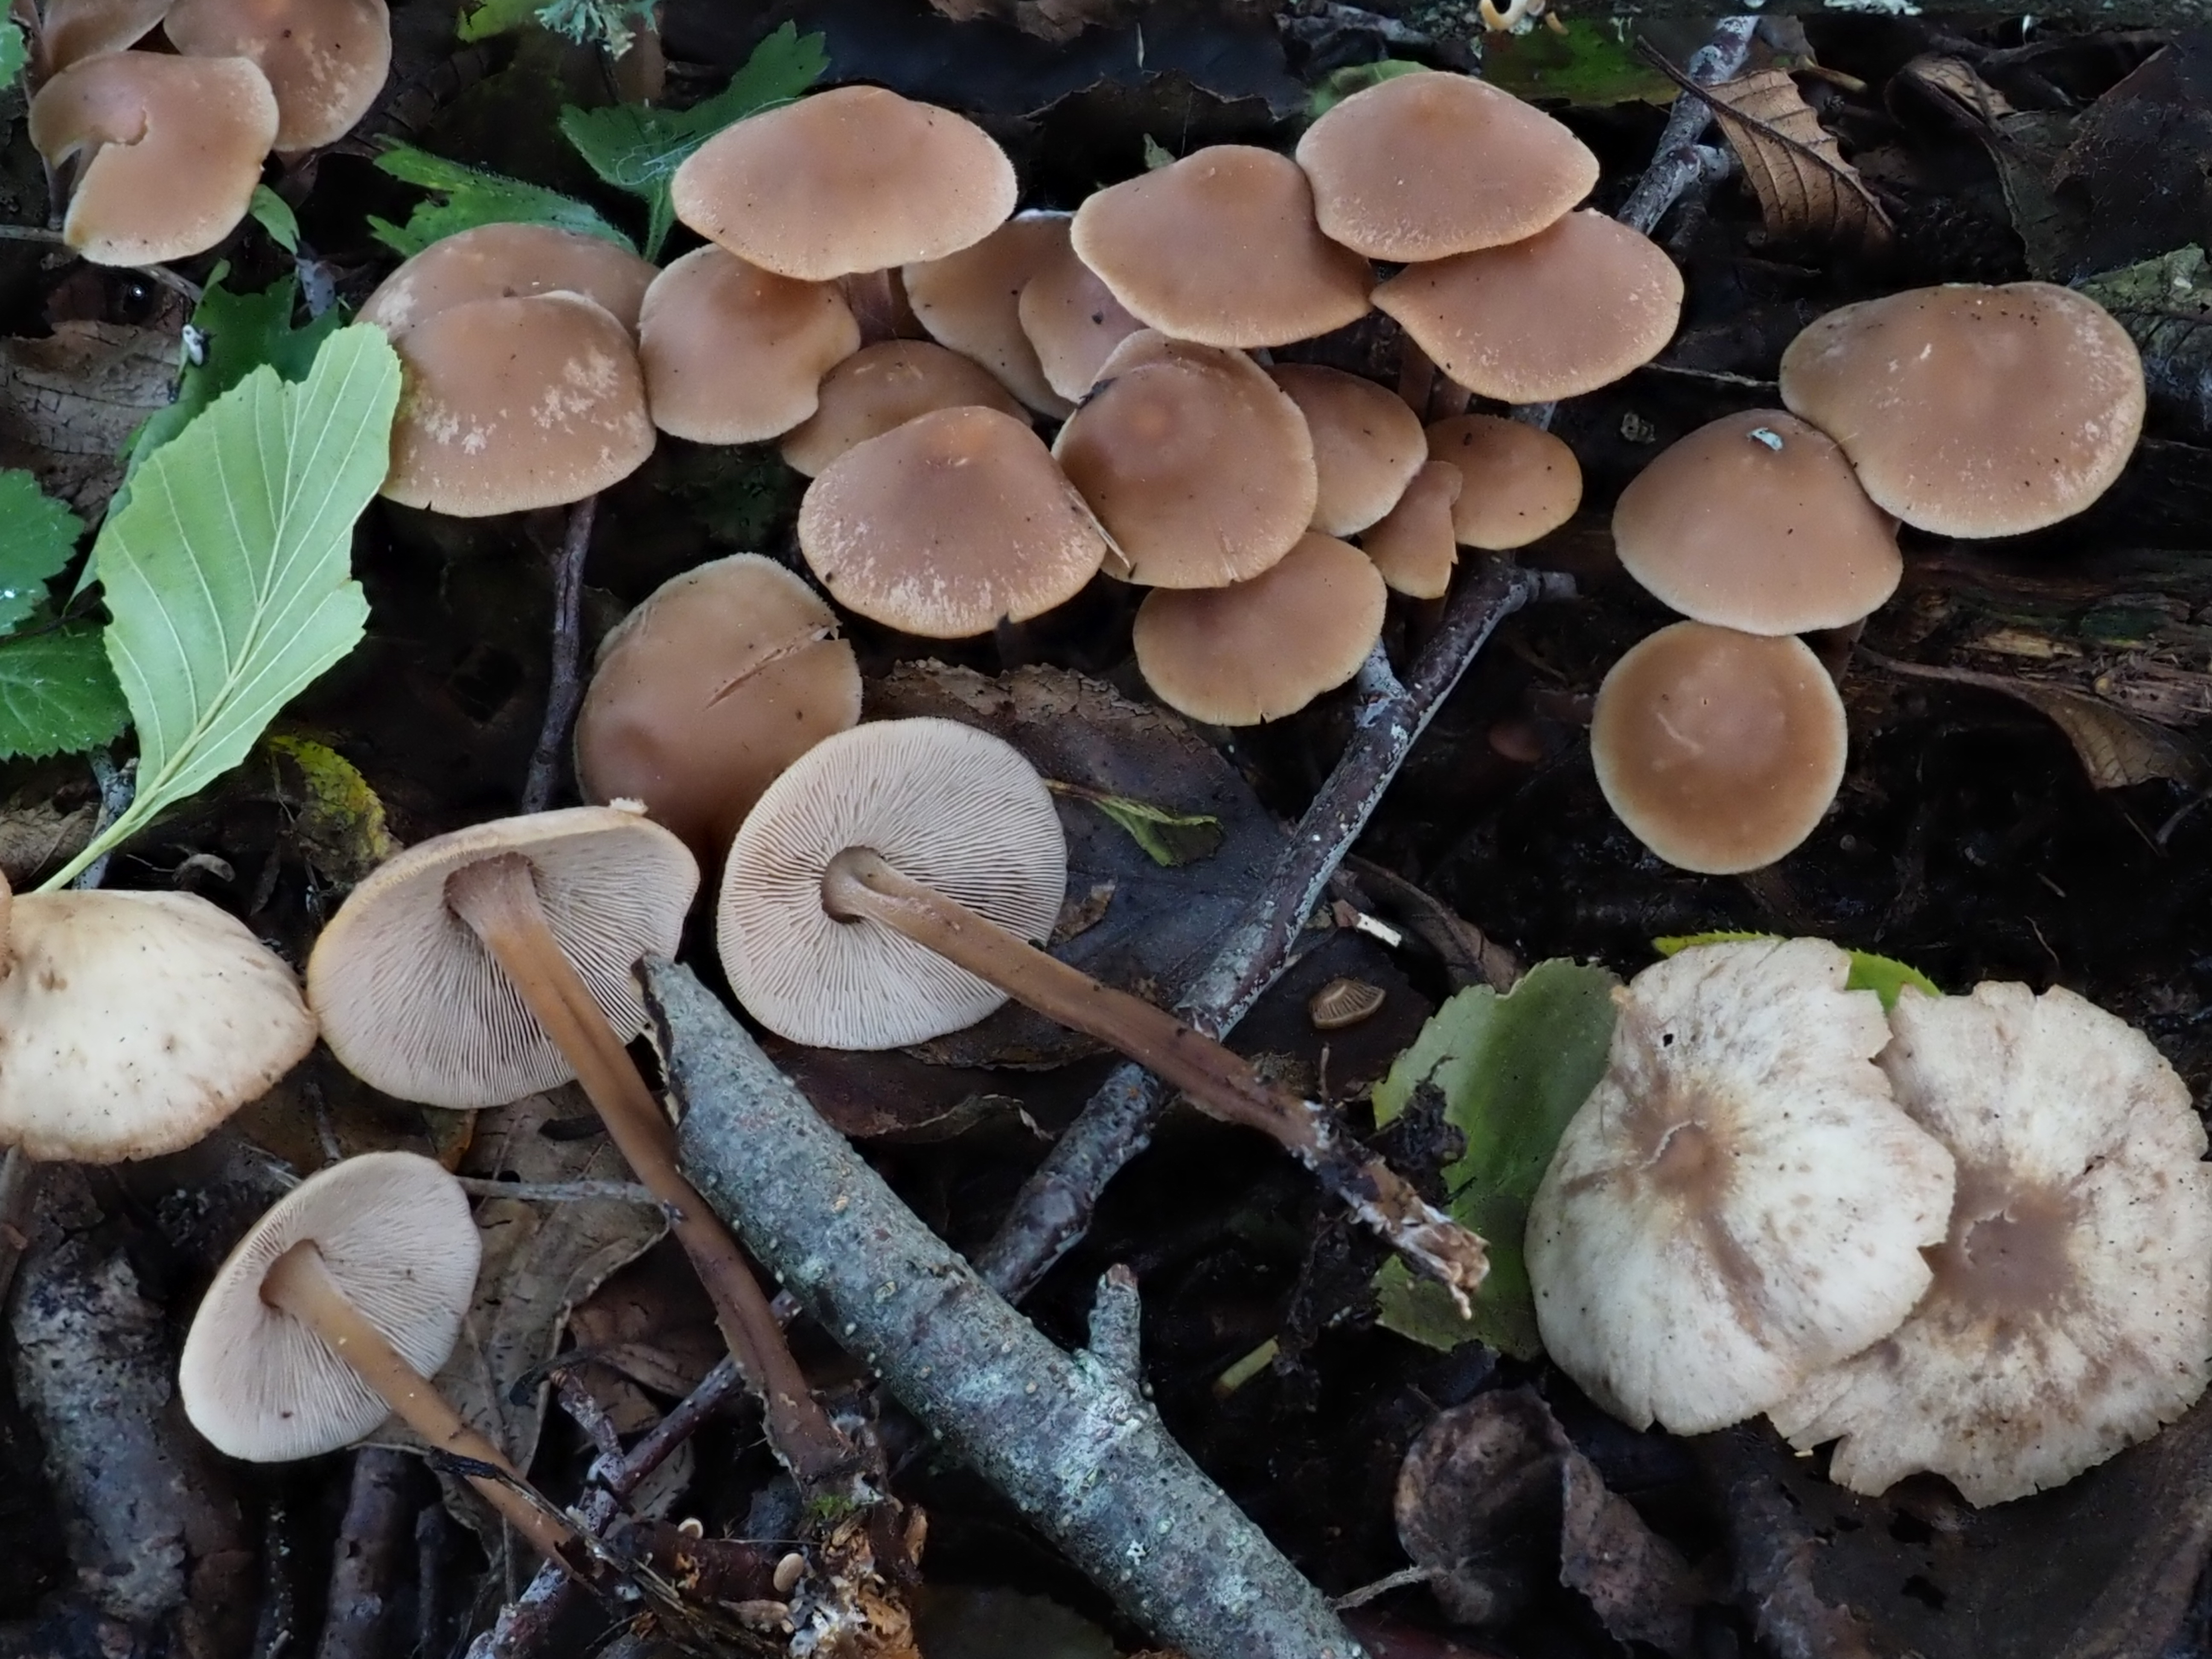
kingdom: Fungi
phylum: Basidiomycota
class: Agaricomycetes
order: Agaricales
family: Omphalotaceae
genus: Collybiopsis
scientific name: Collybiopsis confluens
